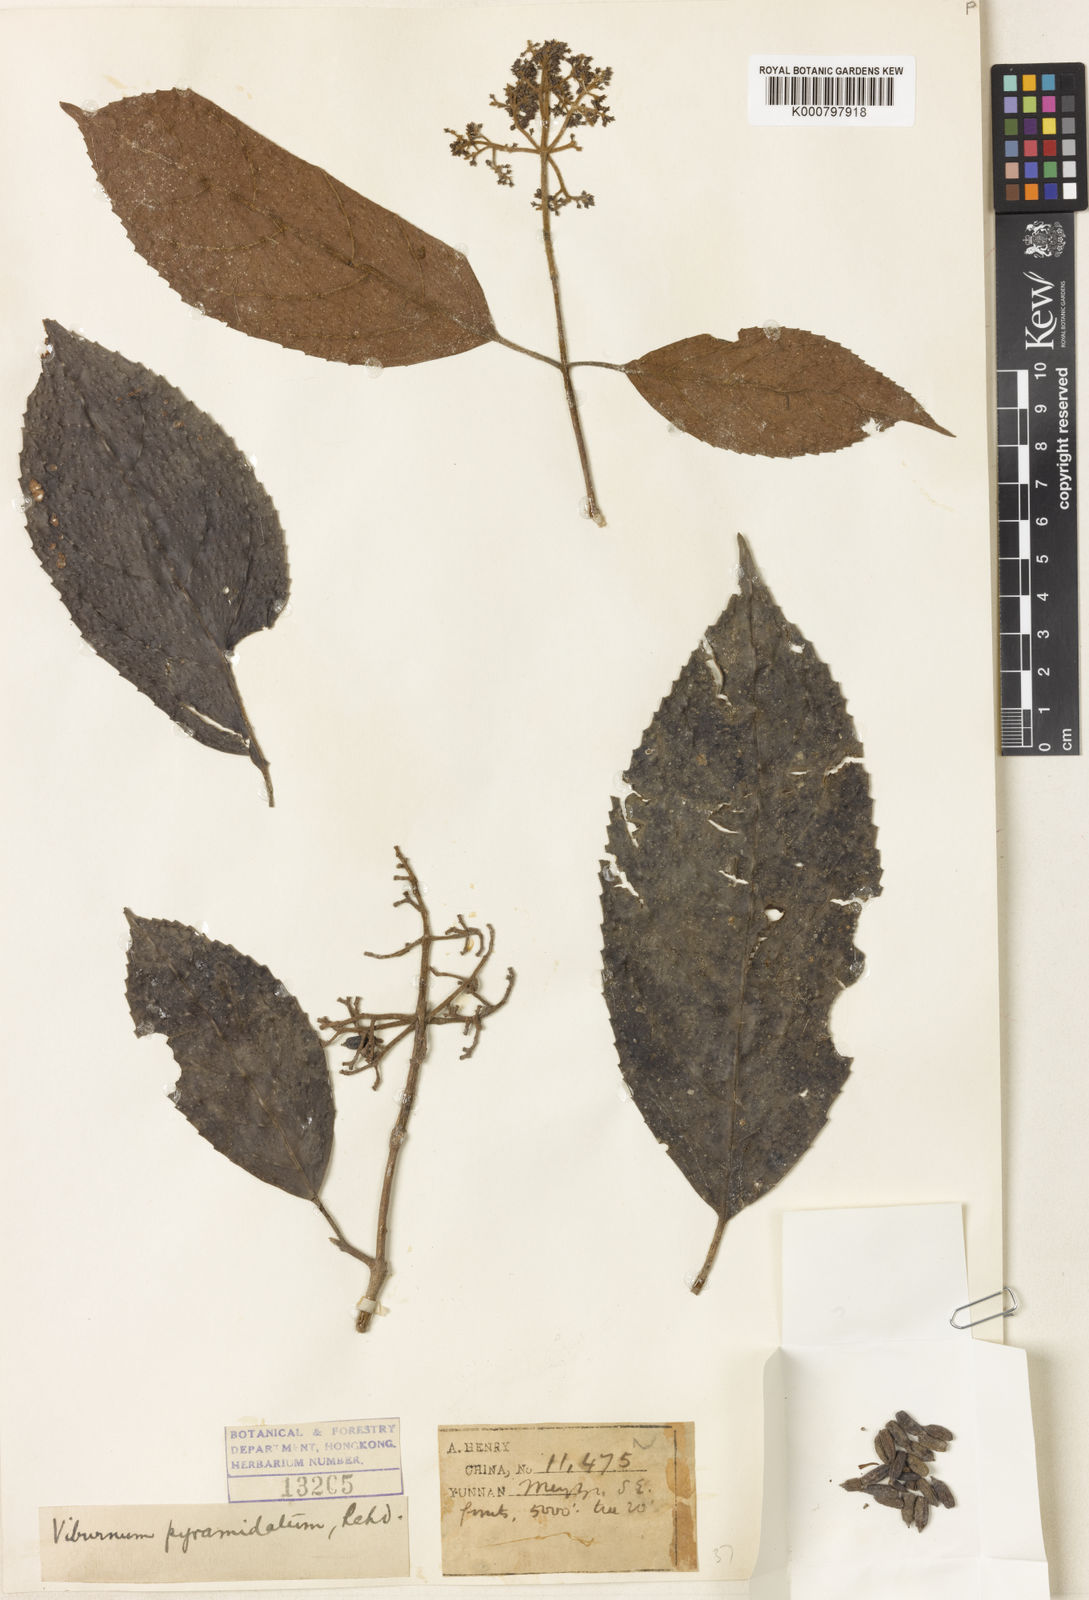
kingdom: Plantae
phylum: Tracheophyta
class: Magnoliopsida
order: Dipsacales
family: Viburnaceae
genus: Viburnum
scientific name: Viburnum pyramidatum
